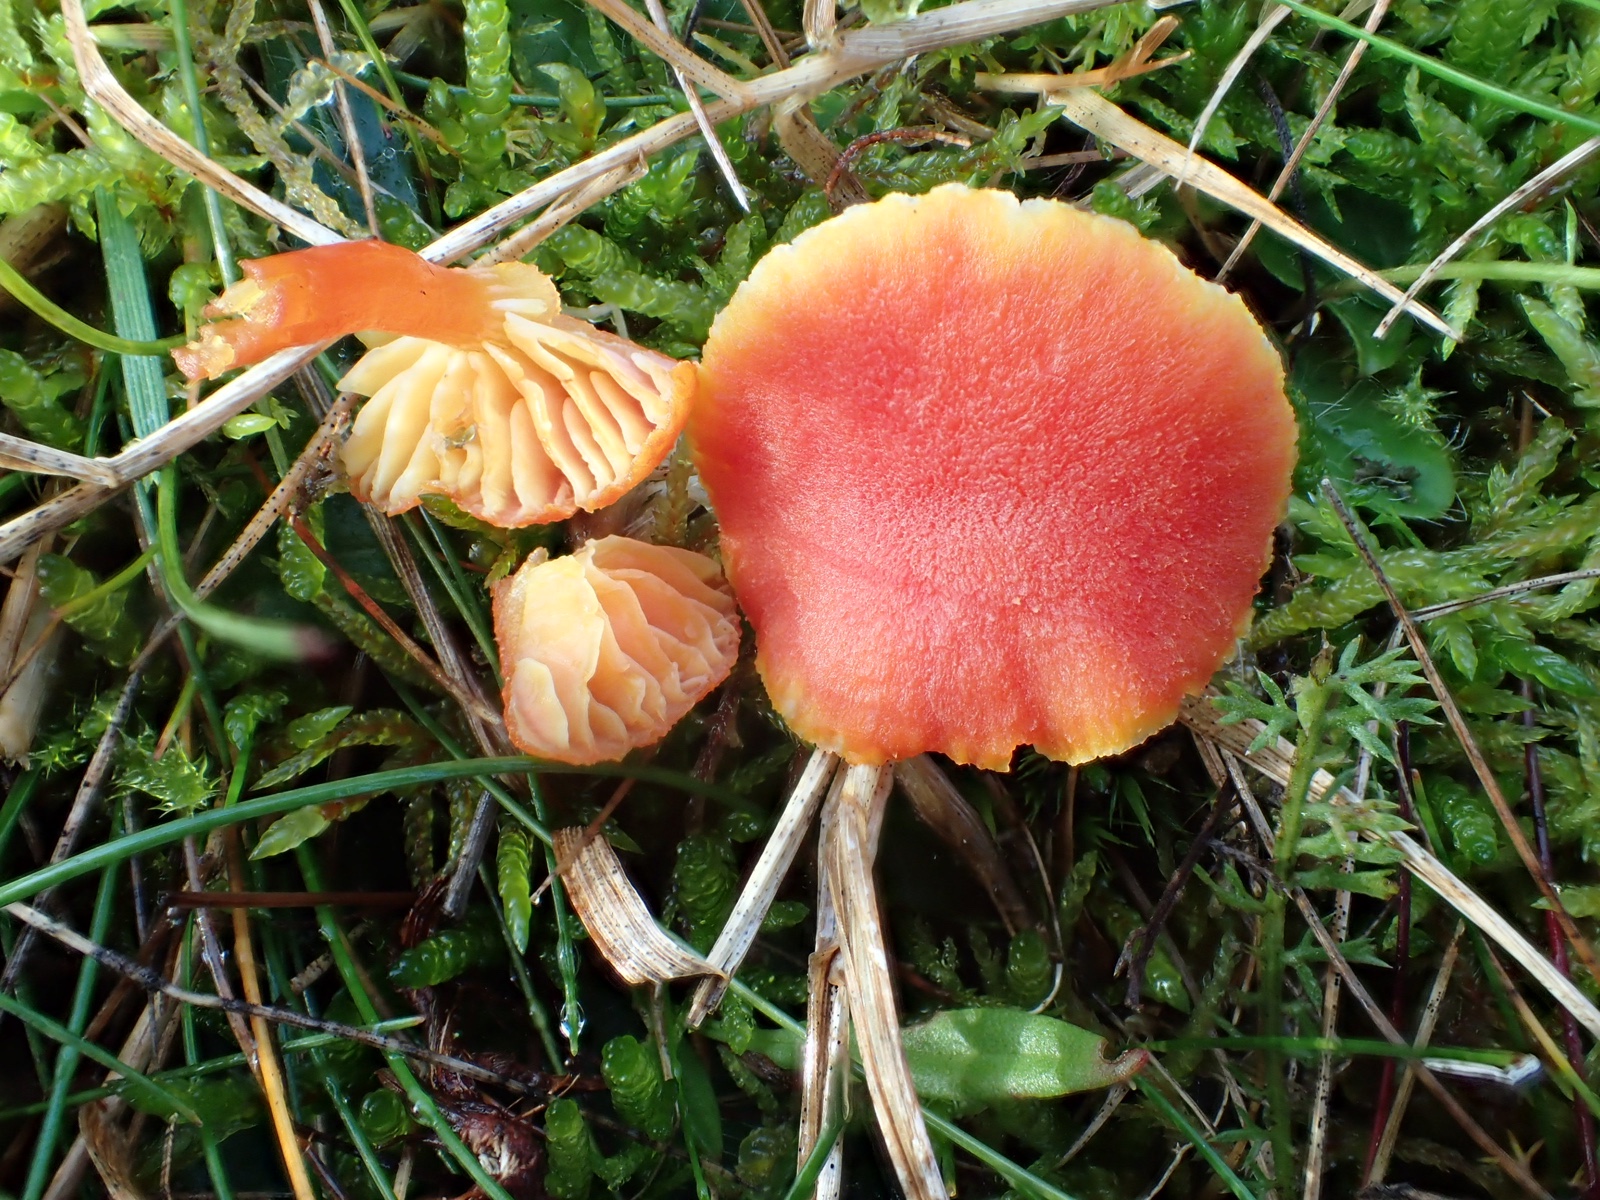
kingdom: Fungi
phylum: Basidiomycota
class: Agaricomycetes
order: Agaricales
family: Hygrophoraceae
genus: Hygrocybe
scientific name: Hygrocybe miniata
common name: mønje-vokshat
